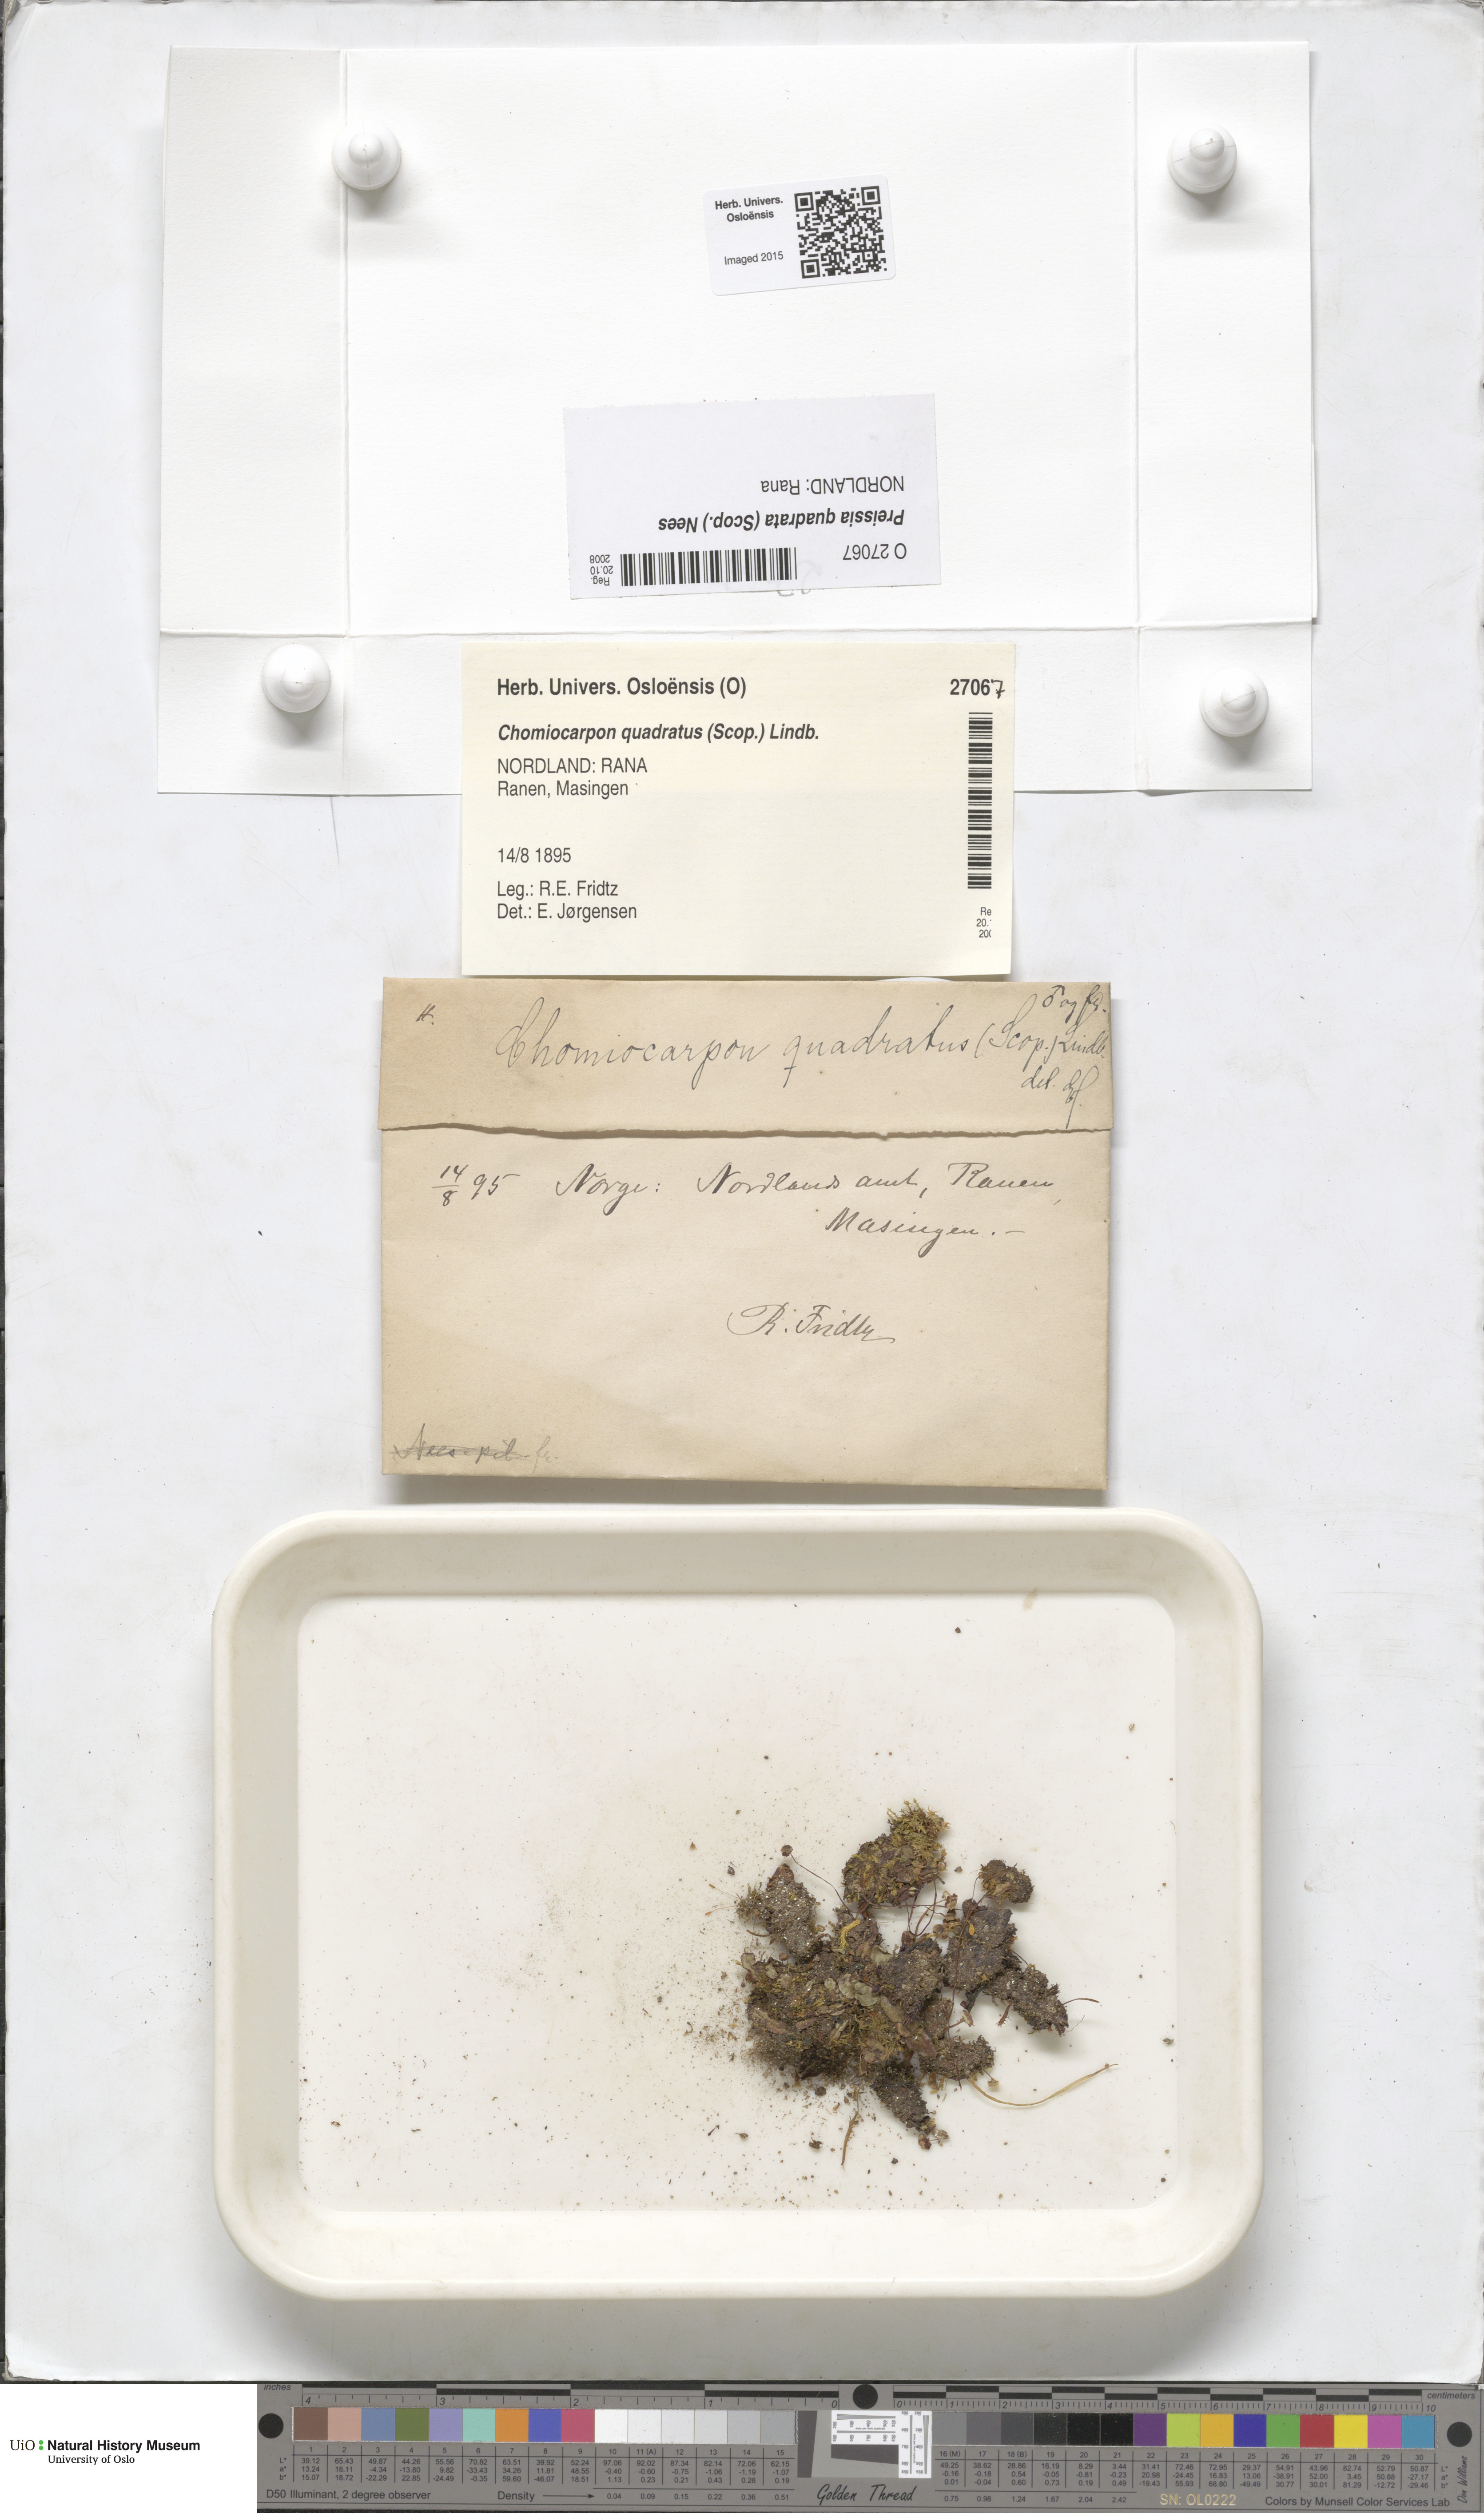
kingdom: Plantae
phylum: Marchantiophyta
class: Marchantiopsida
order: Marchantiales
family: Marchantiaceae
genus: Marchantia
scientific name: Marchantia quadrata
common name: Narrow mushroom-headed liverwort
